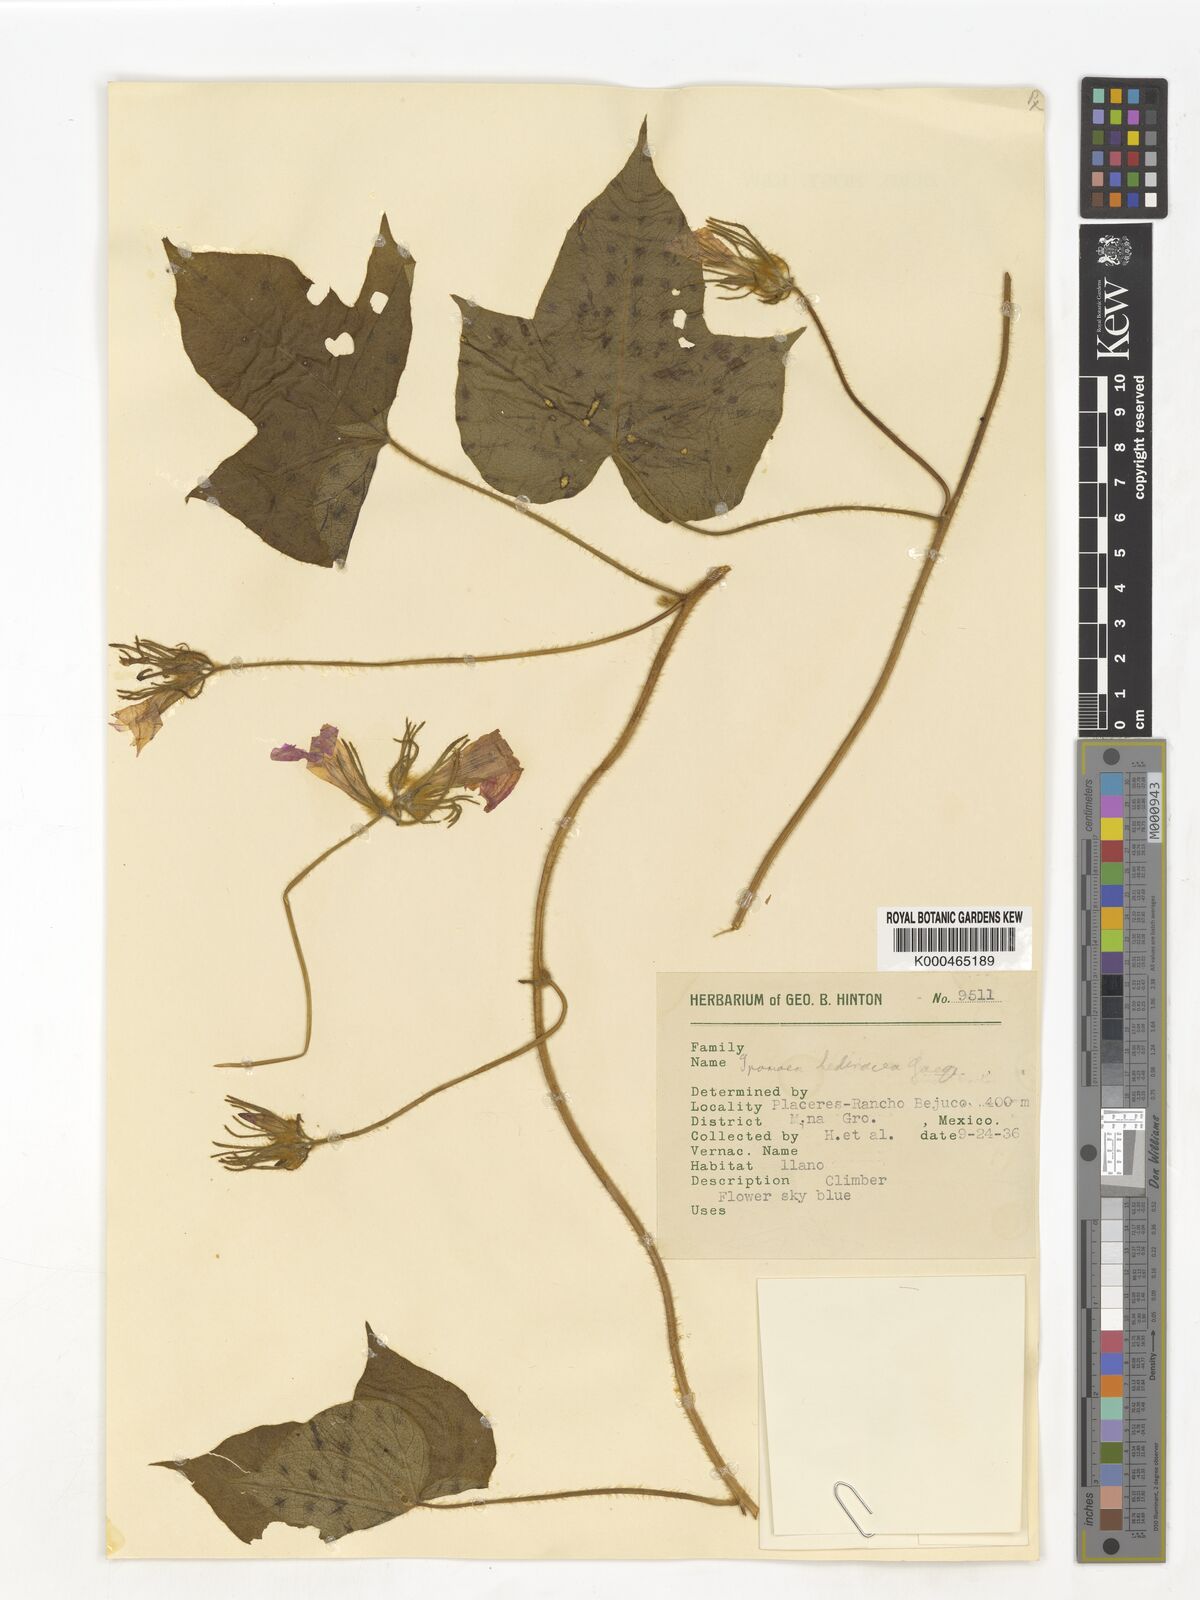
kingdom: Plantae
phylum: Tracheophyta
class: Magnoliopsida
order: Solanales
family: Convolvulaceae
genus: Ipomoea
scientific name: Ipomoea hederacea
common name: Ivy-leaved morning-glory
